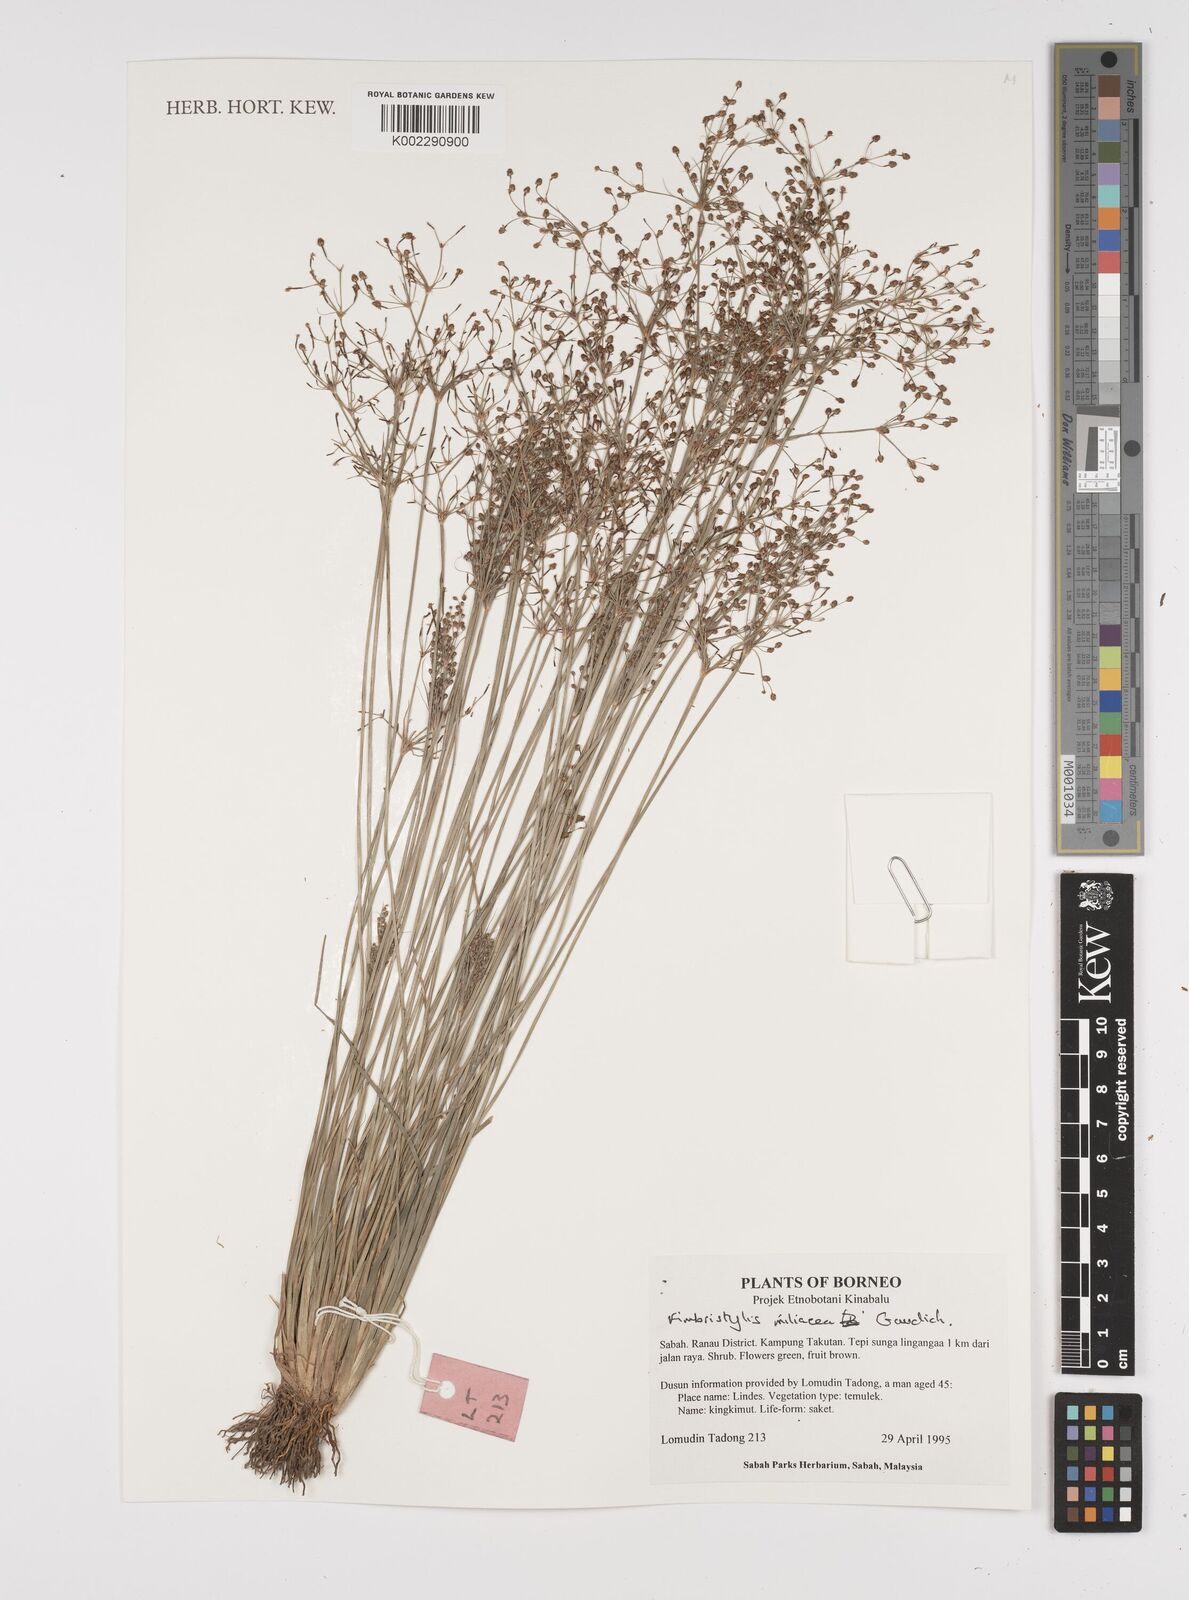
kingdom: Plantae
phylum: Tracheophyta
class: Liliopsida
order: Poales
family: Cyperaceae
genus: Fimbristylis
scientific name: Fimbristylis quinquangularis
